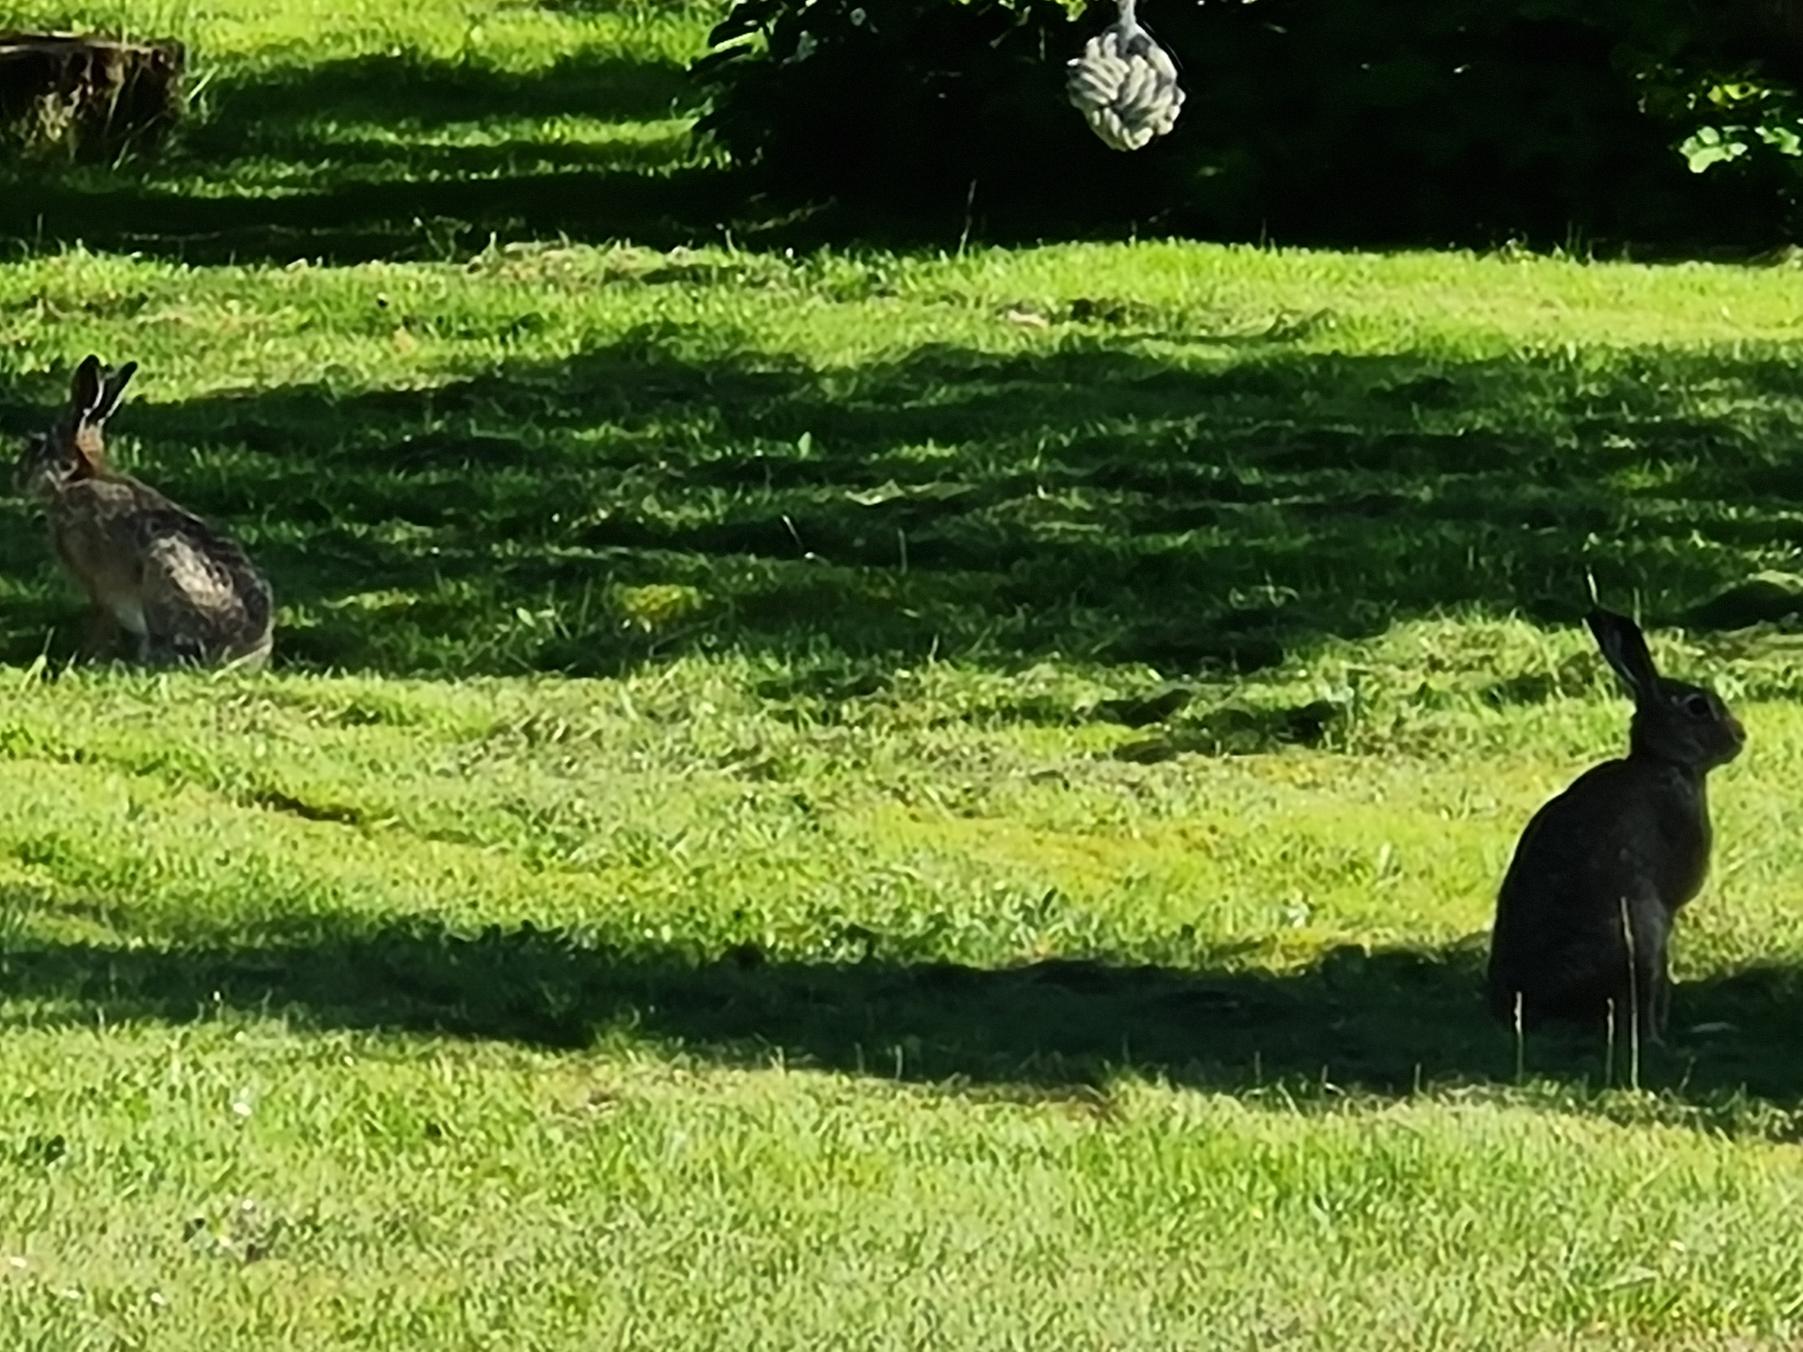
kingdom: Animalia
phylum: Chordata
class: Mammalia
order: Lagomorpha
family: Leporidae
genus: Lepus
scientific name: Lepus europaeus
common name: Hare
